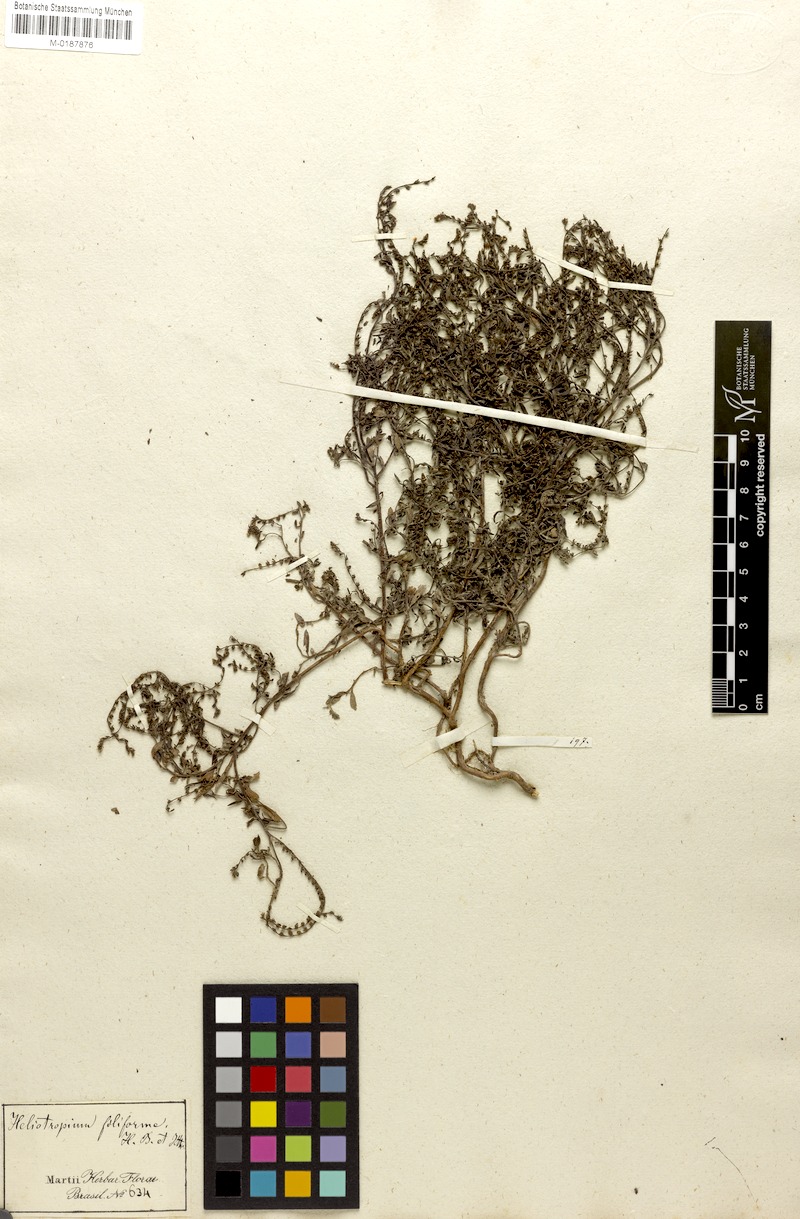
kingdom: Plantae
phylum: Tracheophyta
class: Magnoliopsida
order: Boraginales
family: Heliotropiaceae
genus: Euploca
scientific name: Euploca filiformis
